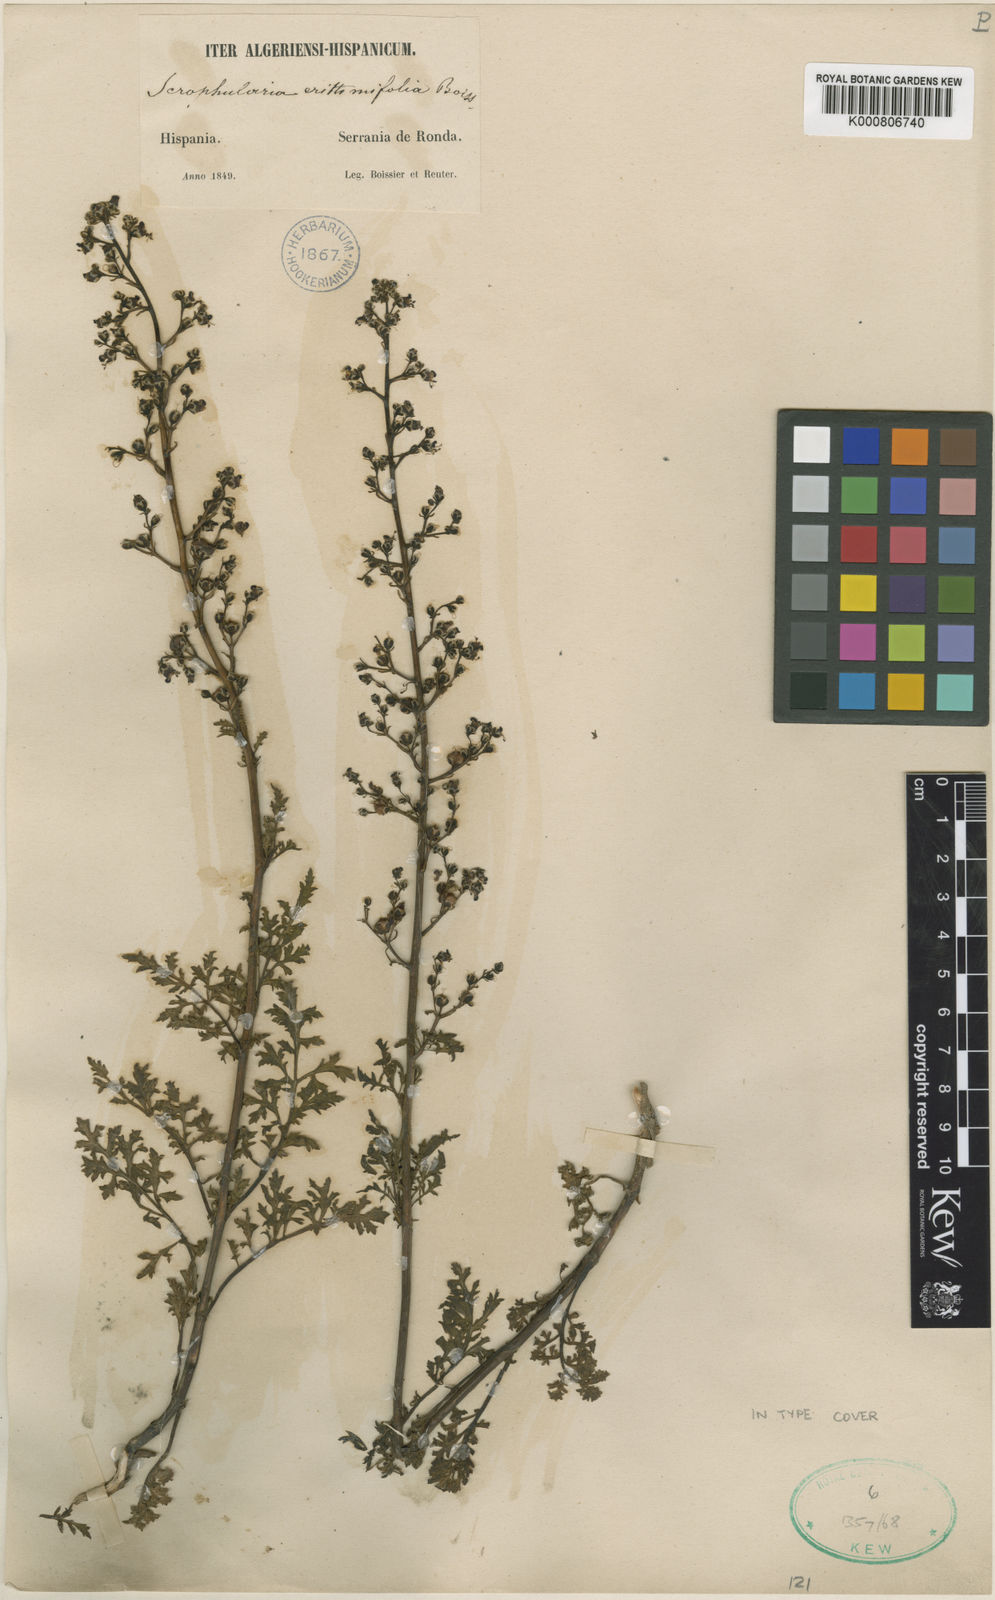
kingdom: Plantae
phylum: Tracheophyta
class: Magnoliopsida
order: Lamiales
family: Scrophulariaceae
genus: Scrophularia
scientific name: Scrophularia crithmifolia
